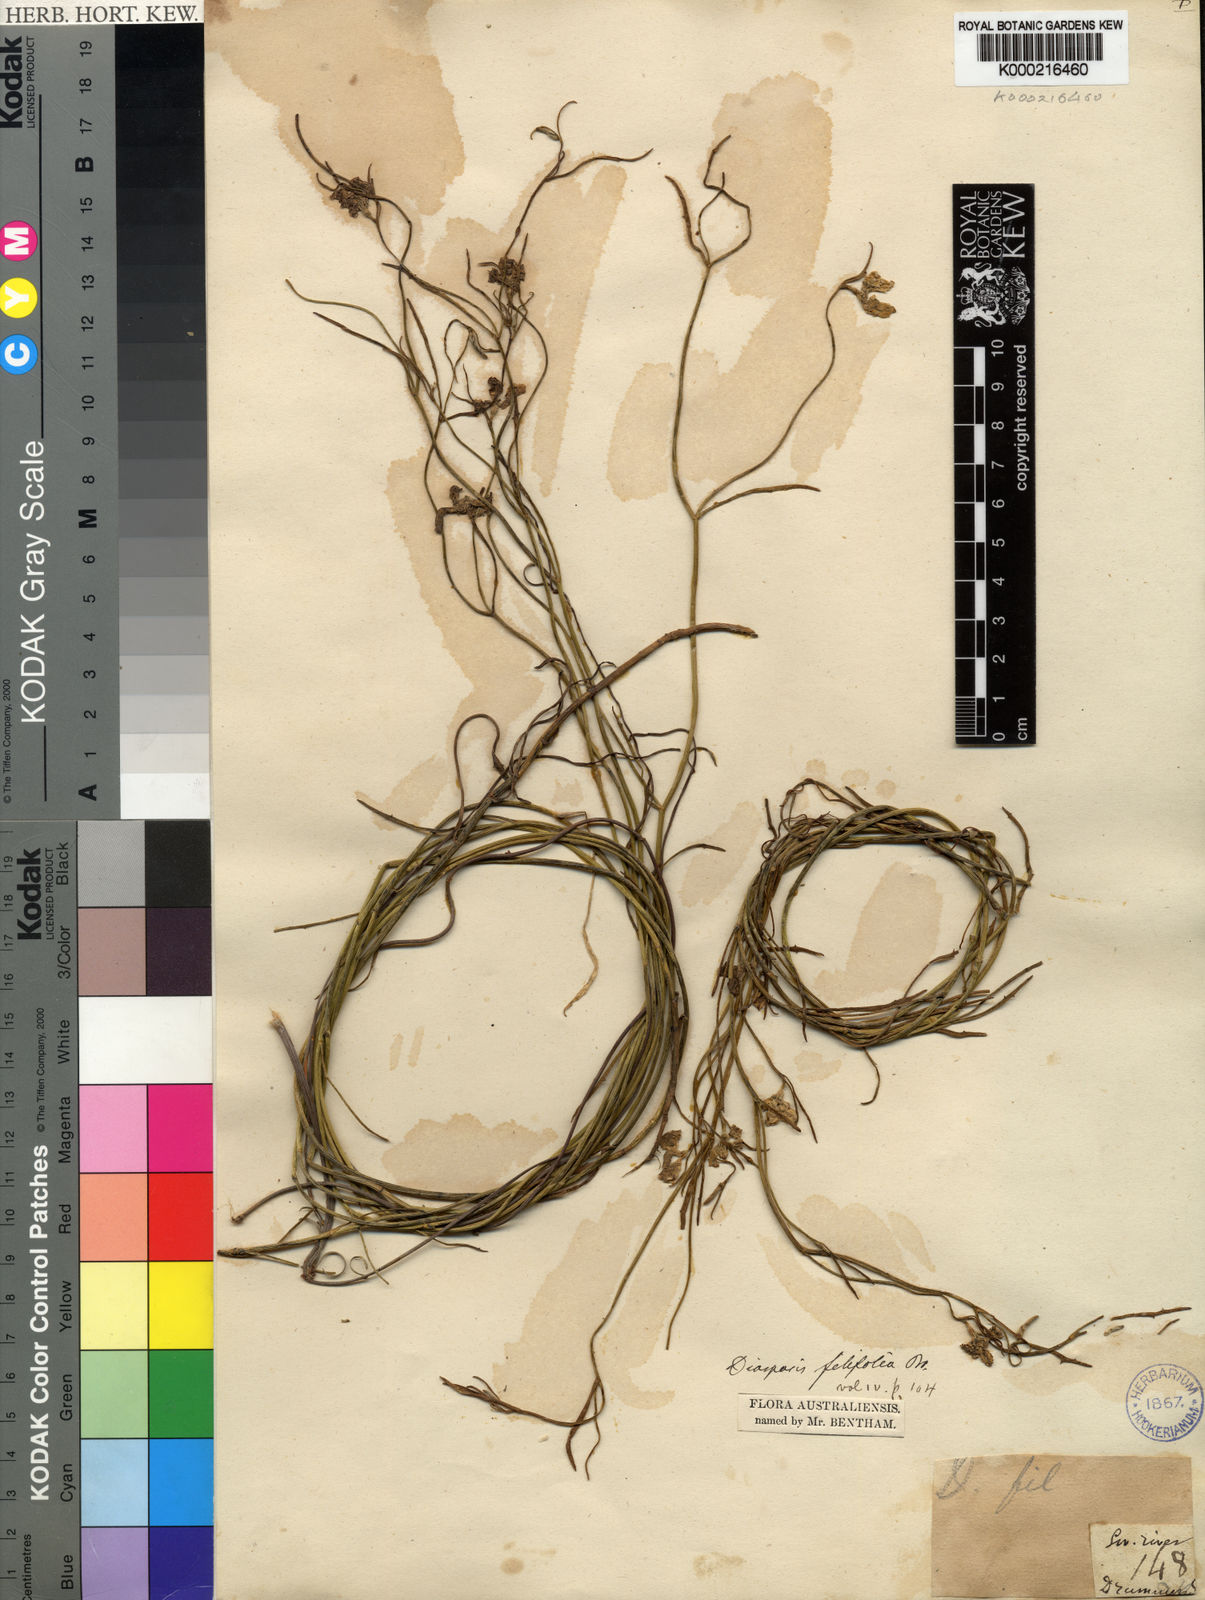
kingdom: Plantae
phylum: Tracheophyta
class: Magnoliopsida
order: Asterales
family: Goodeniaceae
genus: Scaevola
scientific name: Scaevola filifolia
